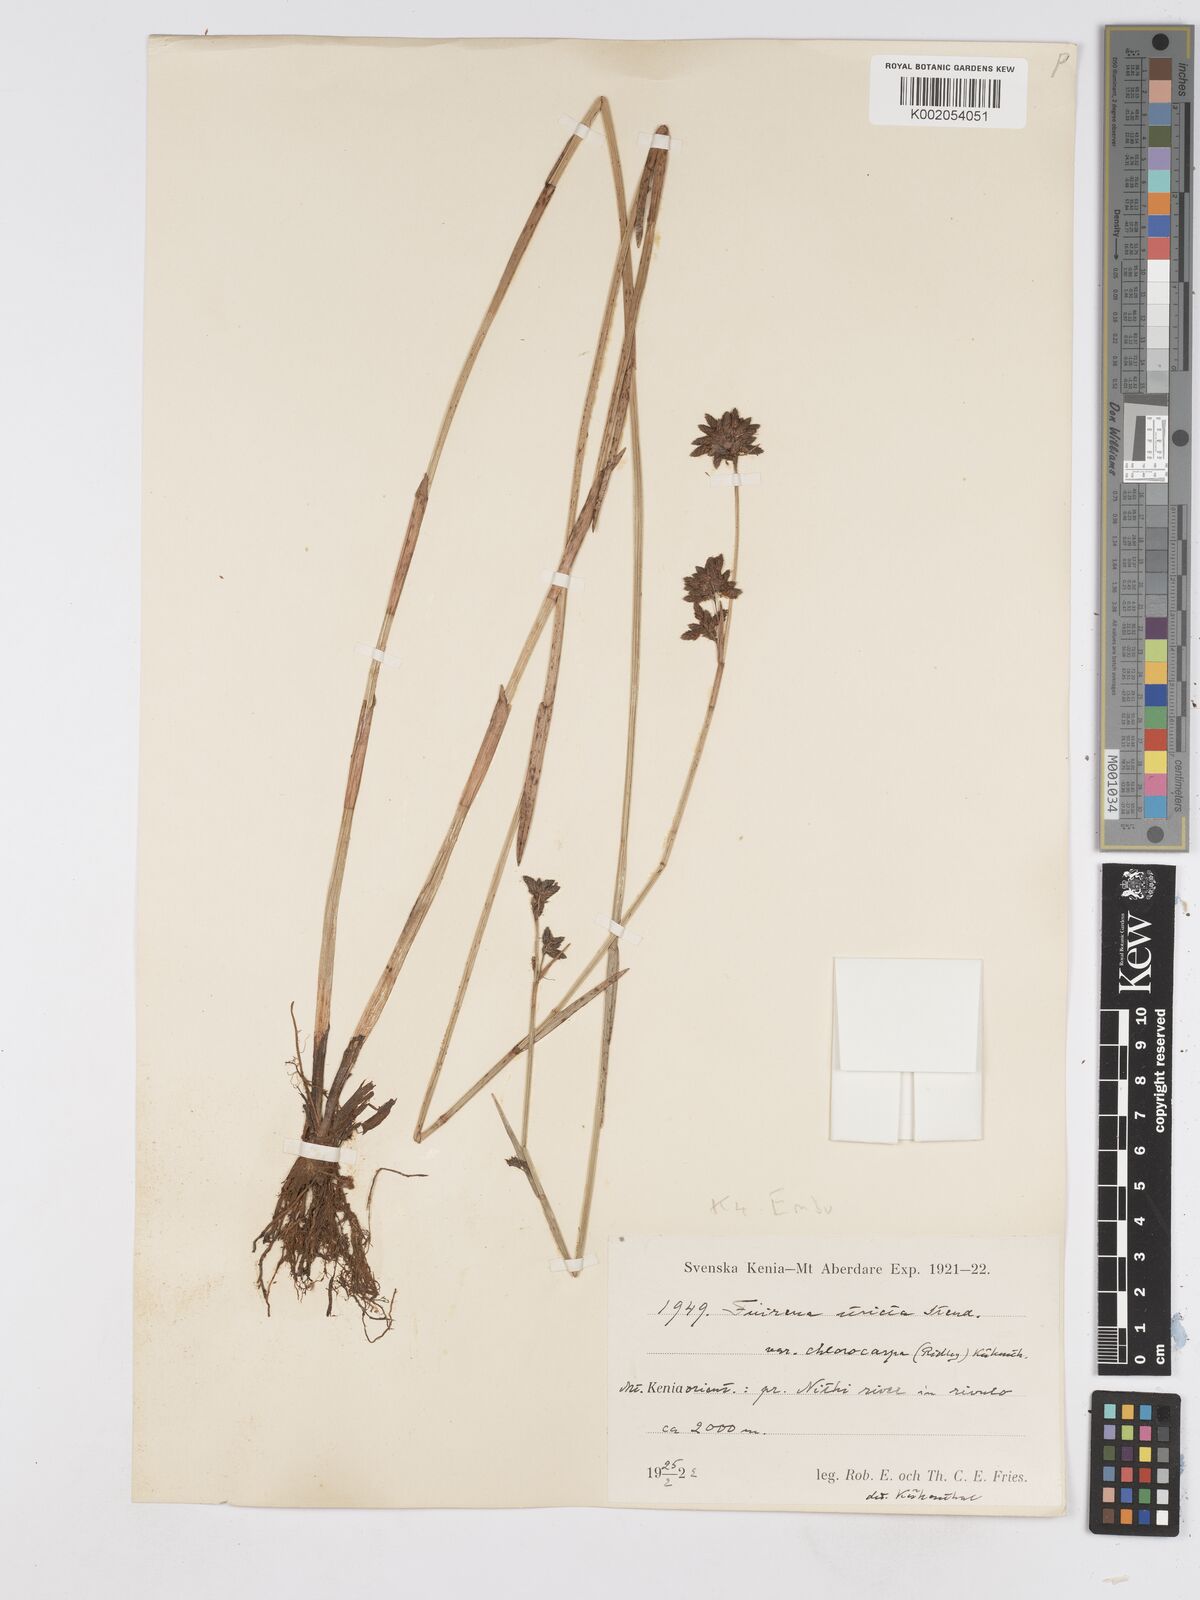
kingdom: Plantae
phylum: Tracheophyta
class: Liliopsida
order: Poales
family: Cyperaceae
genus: Fuirena
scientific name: Fuirena stricta
